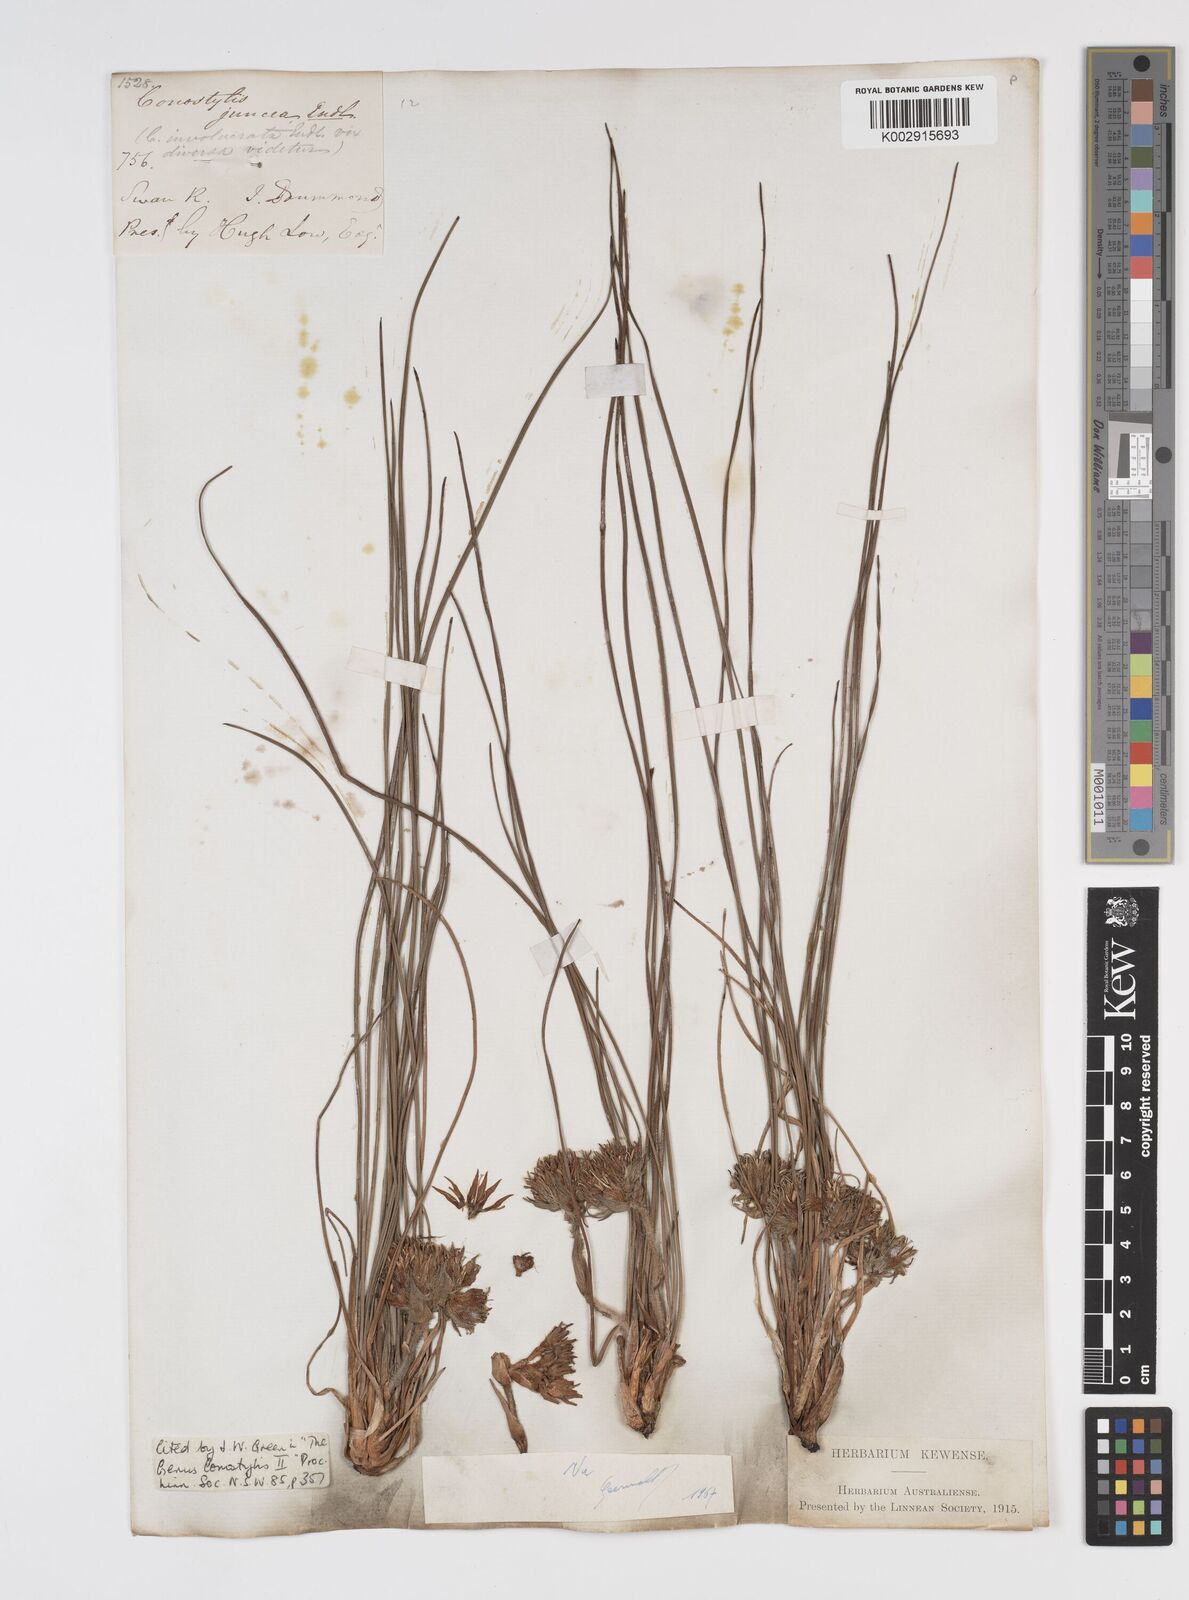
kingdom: Plantae
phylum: Tracheophyta
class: Liliopsida
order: Commelinales
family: Haemodoraceae
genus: Conostylis
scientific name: Conostylis juncea
